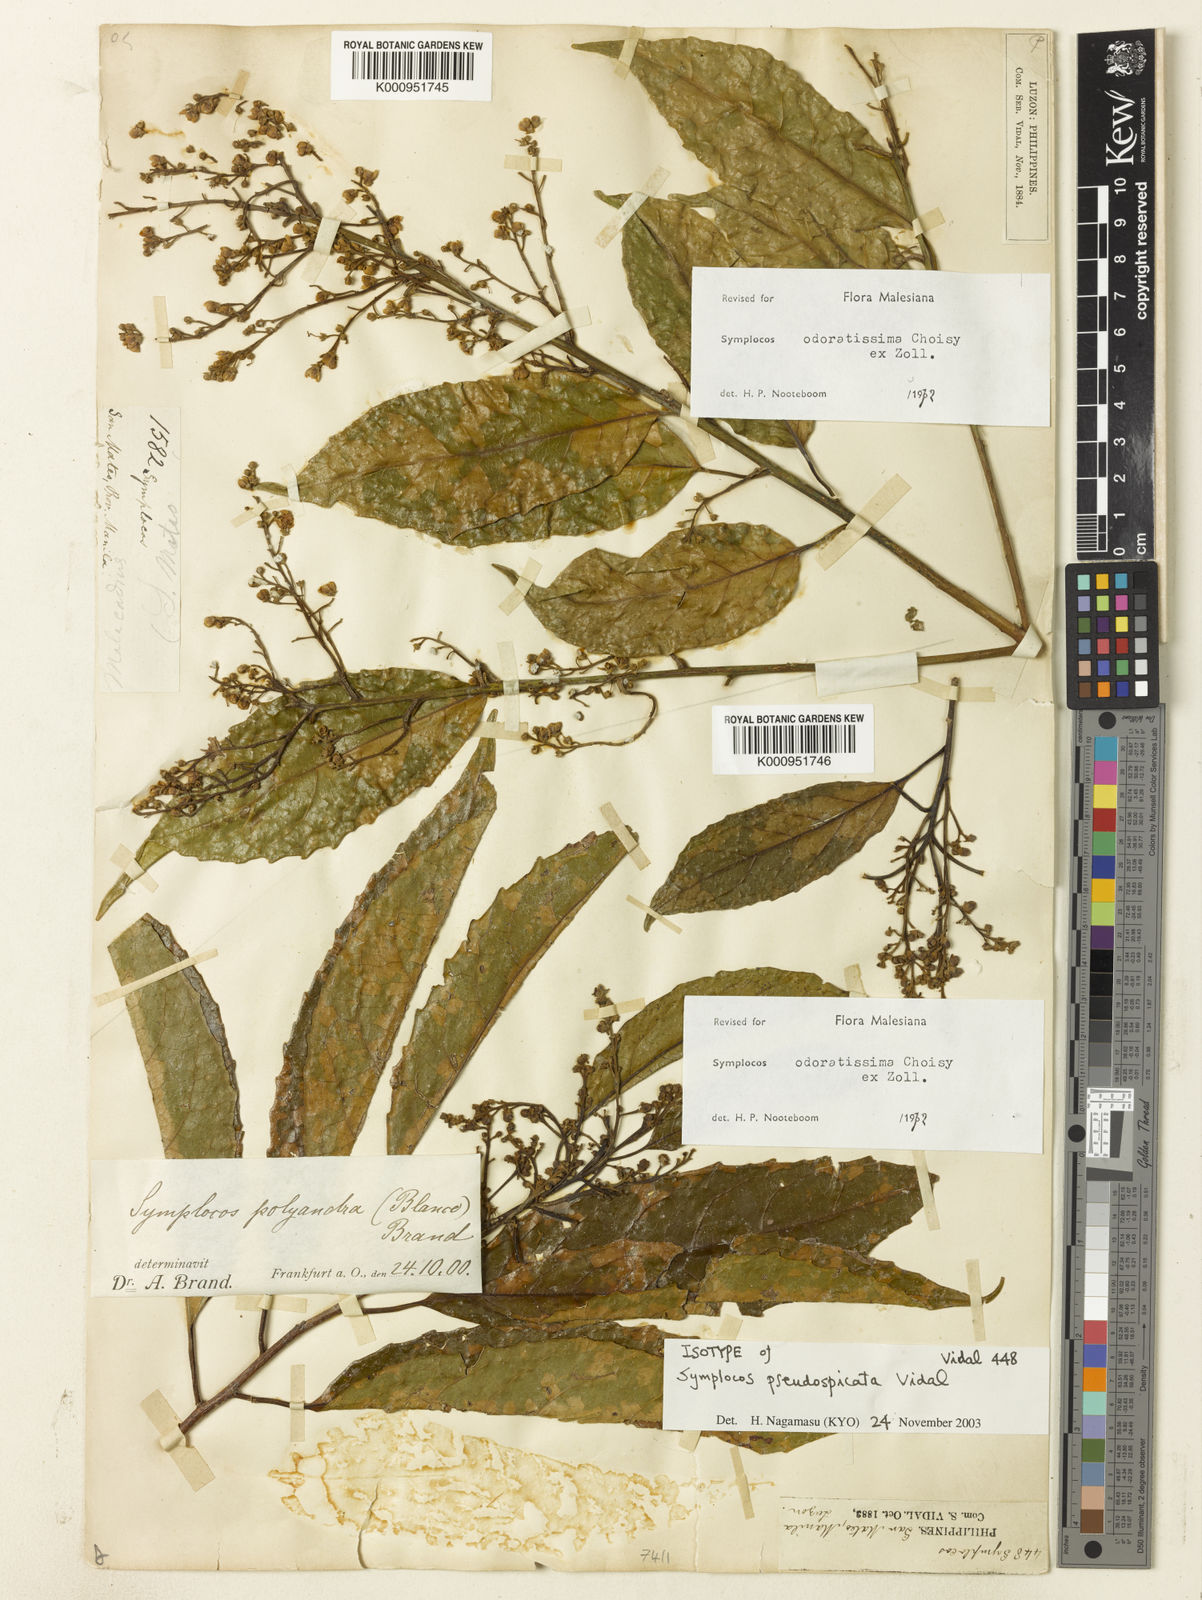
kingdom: Plantae
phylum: Tracheophyta
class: Magnoliopsida
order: Ericales
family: Symplocaceae
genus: Symplocos
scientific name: Symplocos odoratissima
